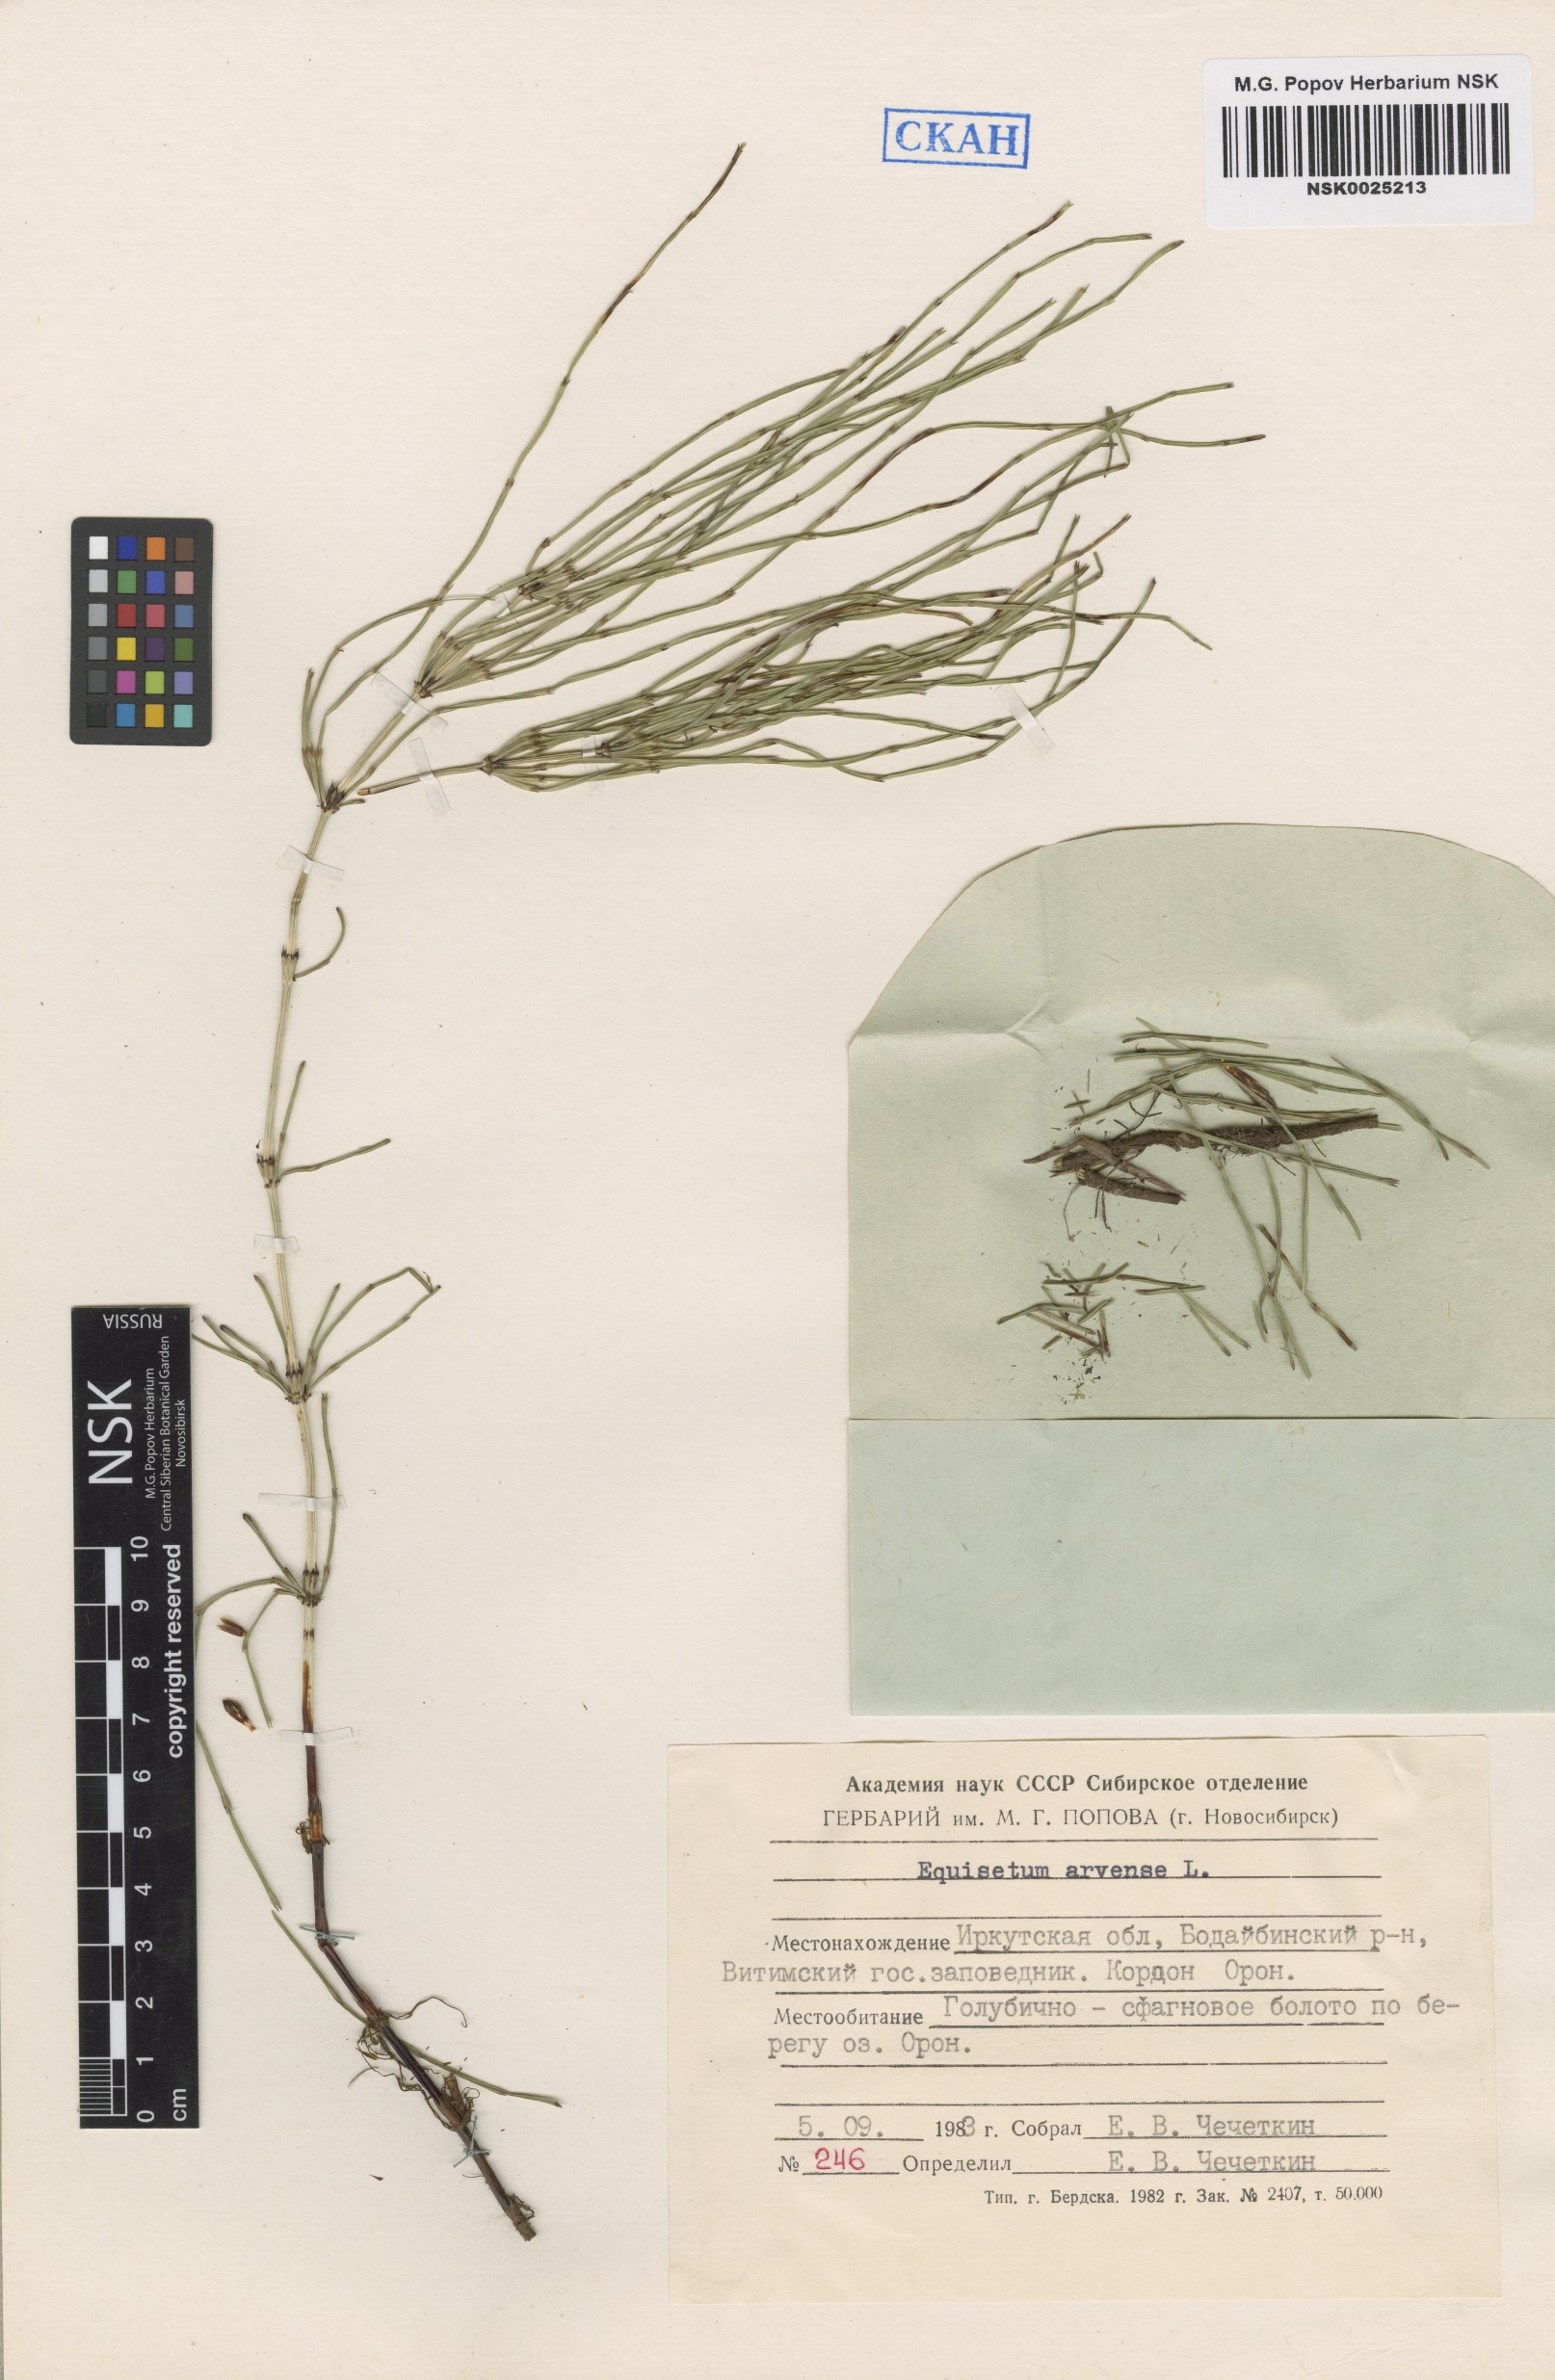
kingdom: Plantae
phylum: Tracheophyta
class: Polypodiopsida
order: Equisetales
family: Equisetaceae
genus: Equisetum
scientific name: Equisetum arvense
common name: Field horsetail
